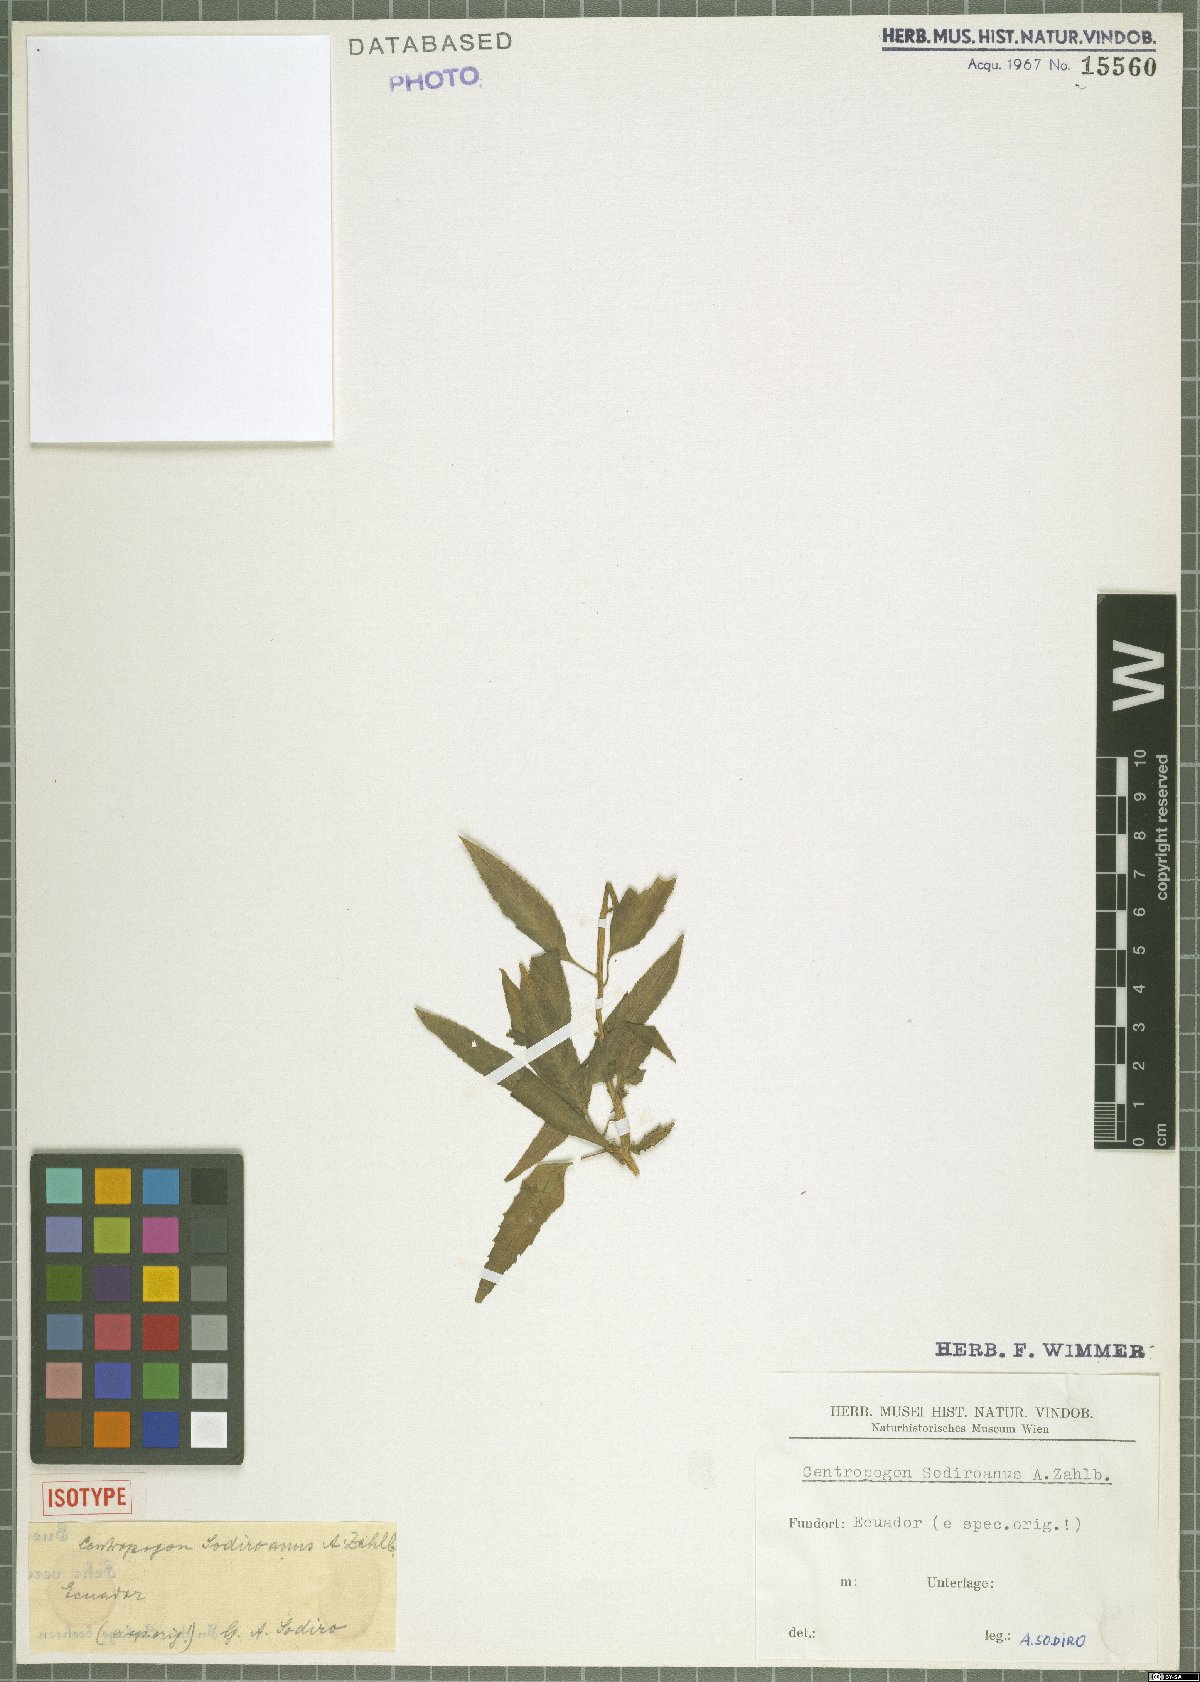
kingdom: Plantae
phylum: Tracheophyta
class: Magnoliopsida
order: Asterales
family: Campanulaceae
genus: Centropogon
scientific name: Centropogon sodiroanus
